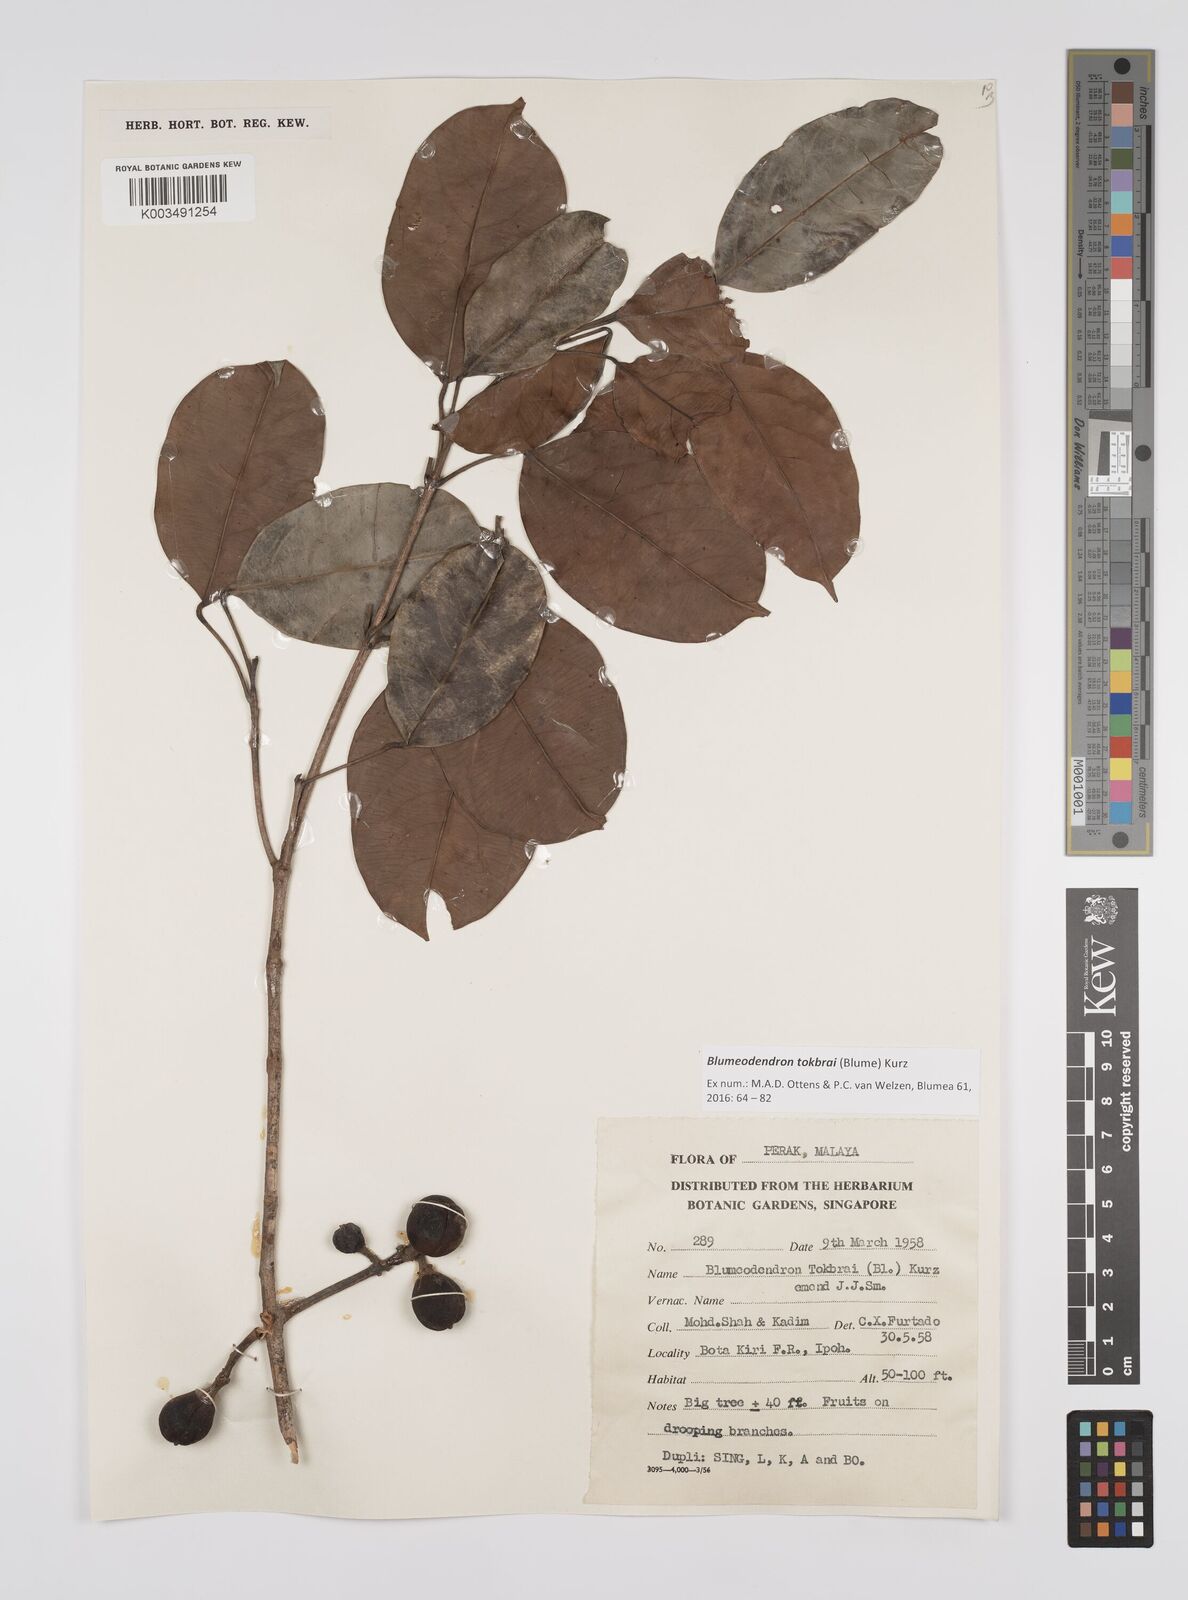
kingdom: Plantae
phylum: Tracheophyta
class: Magnoliopsida
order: Malpighiales
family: Euphorbiaceae
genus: Blumeodendron
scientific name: Blumeodendron tokbrai
